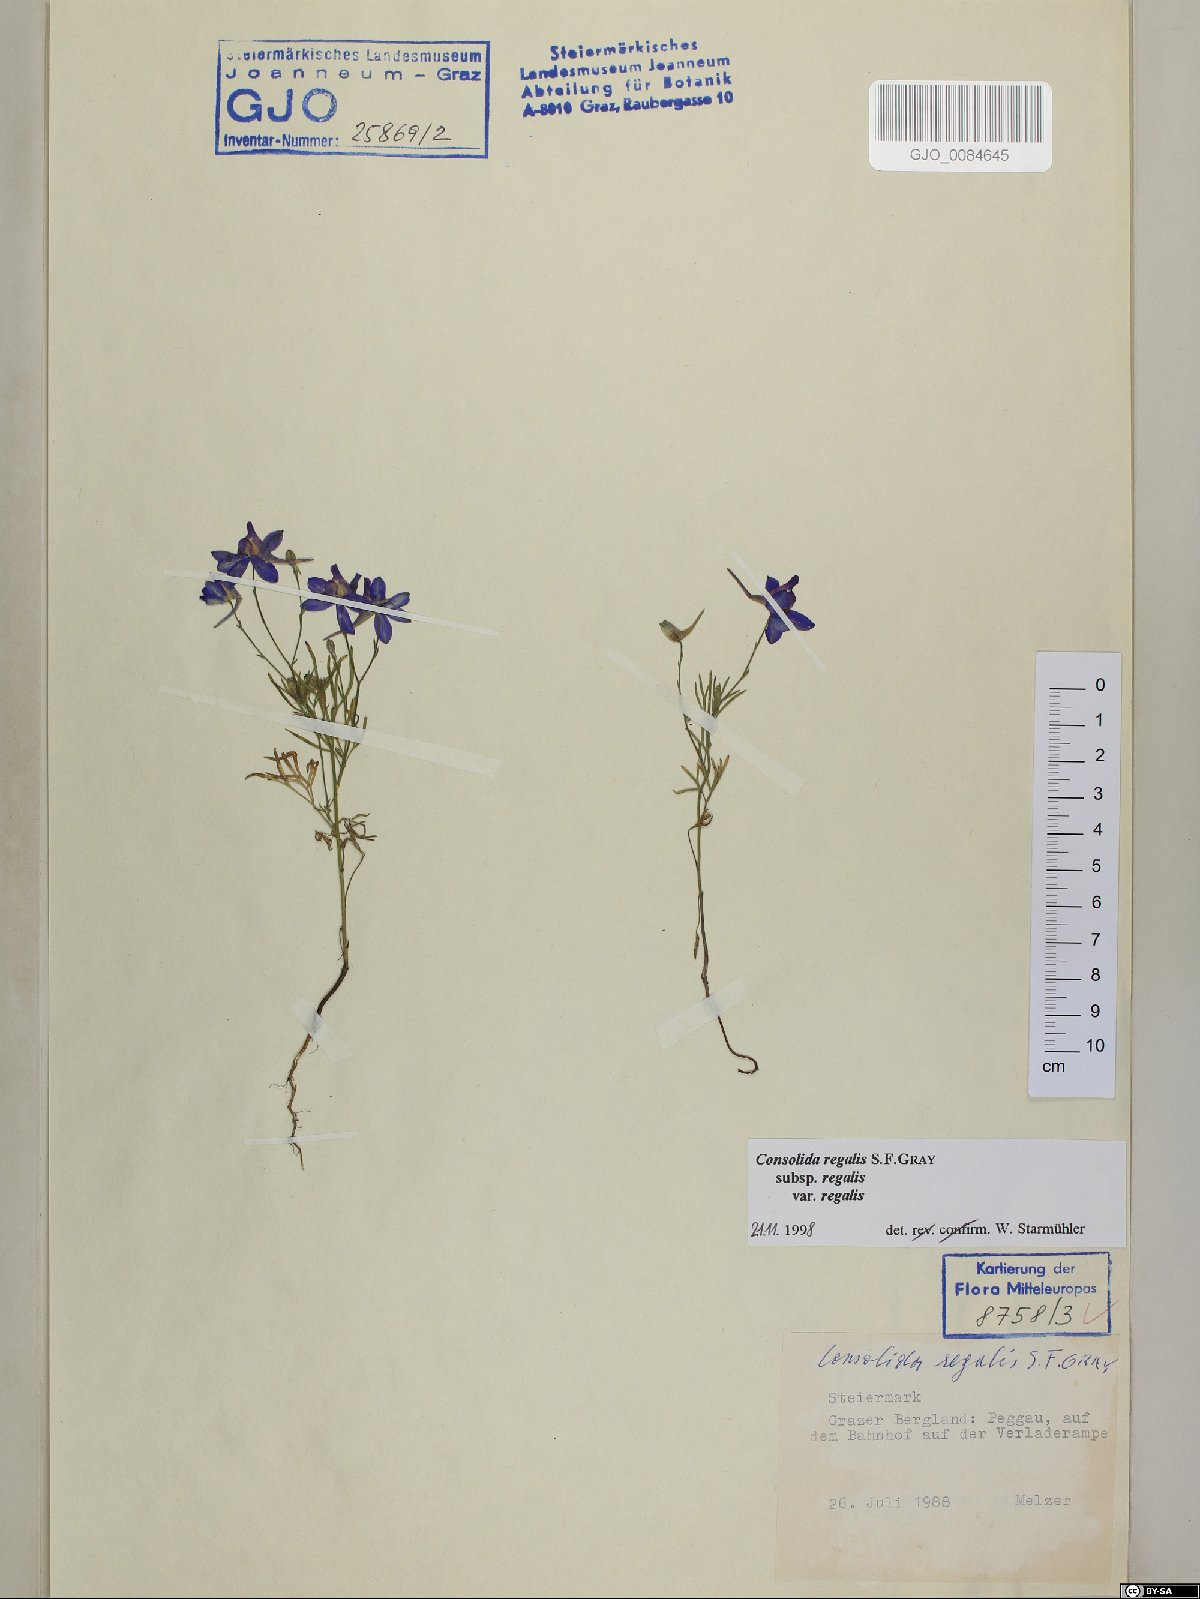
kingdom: Plantae
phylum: Tracheophyta
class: Magnoliopsida
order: Ranunculales
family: Ranunculaceae
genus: Delphinium
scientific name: Delphinium consolida
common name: Branching larkspur
